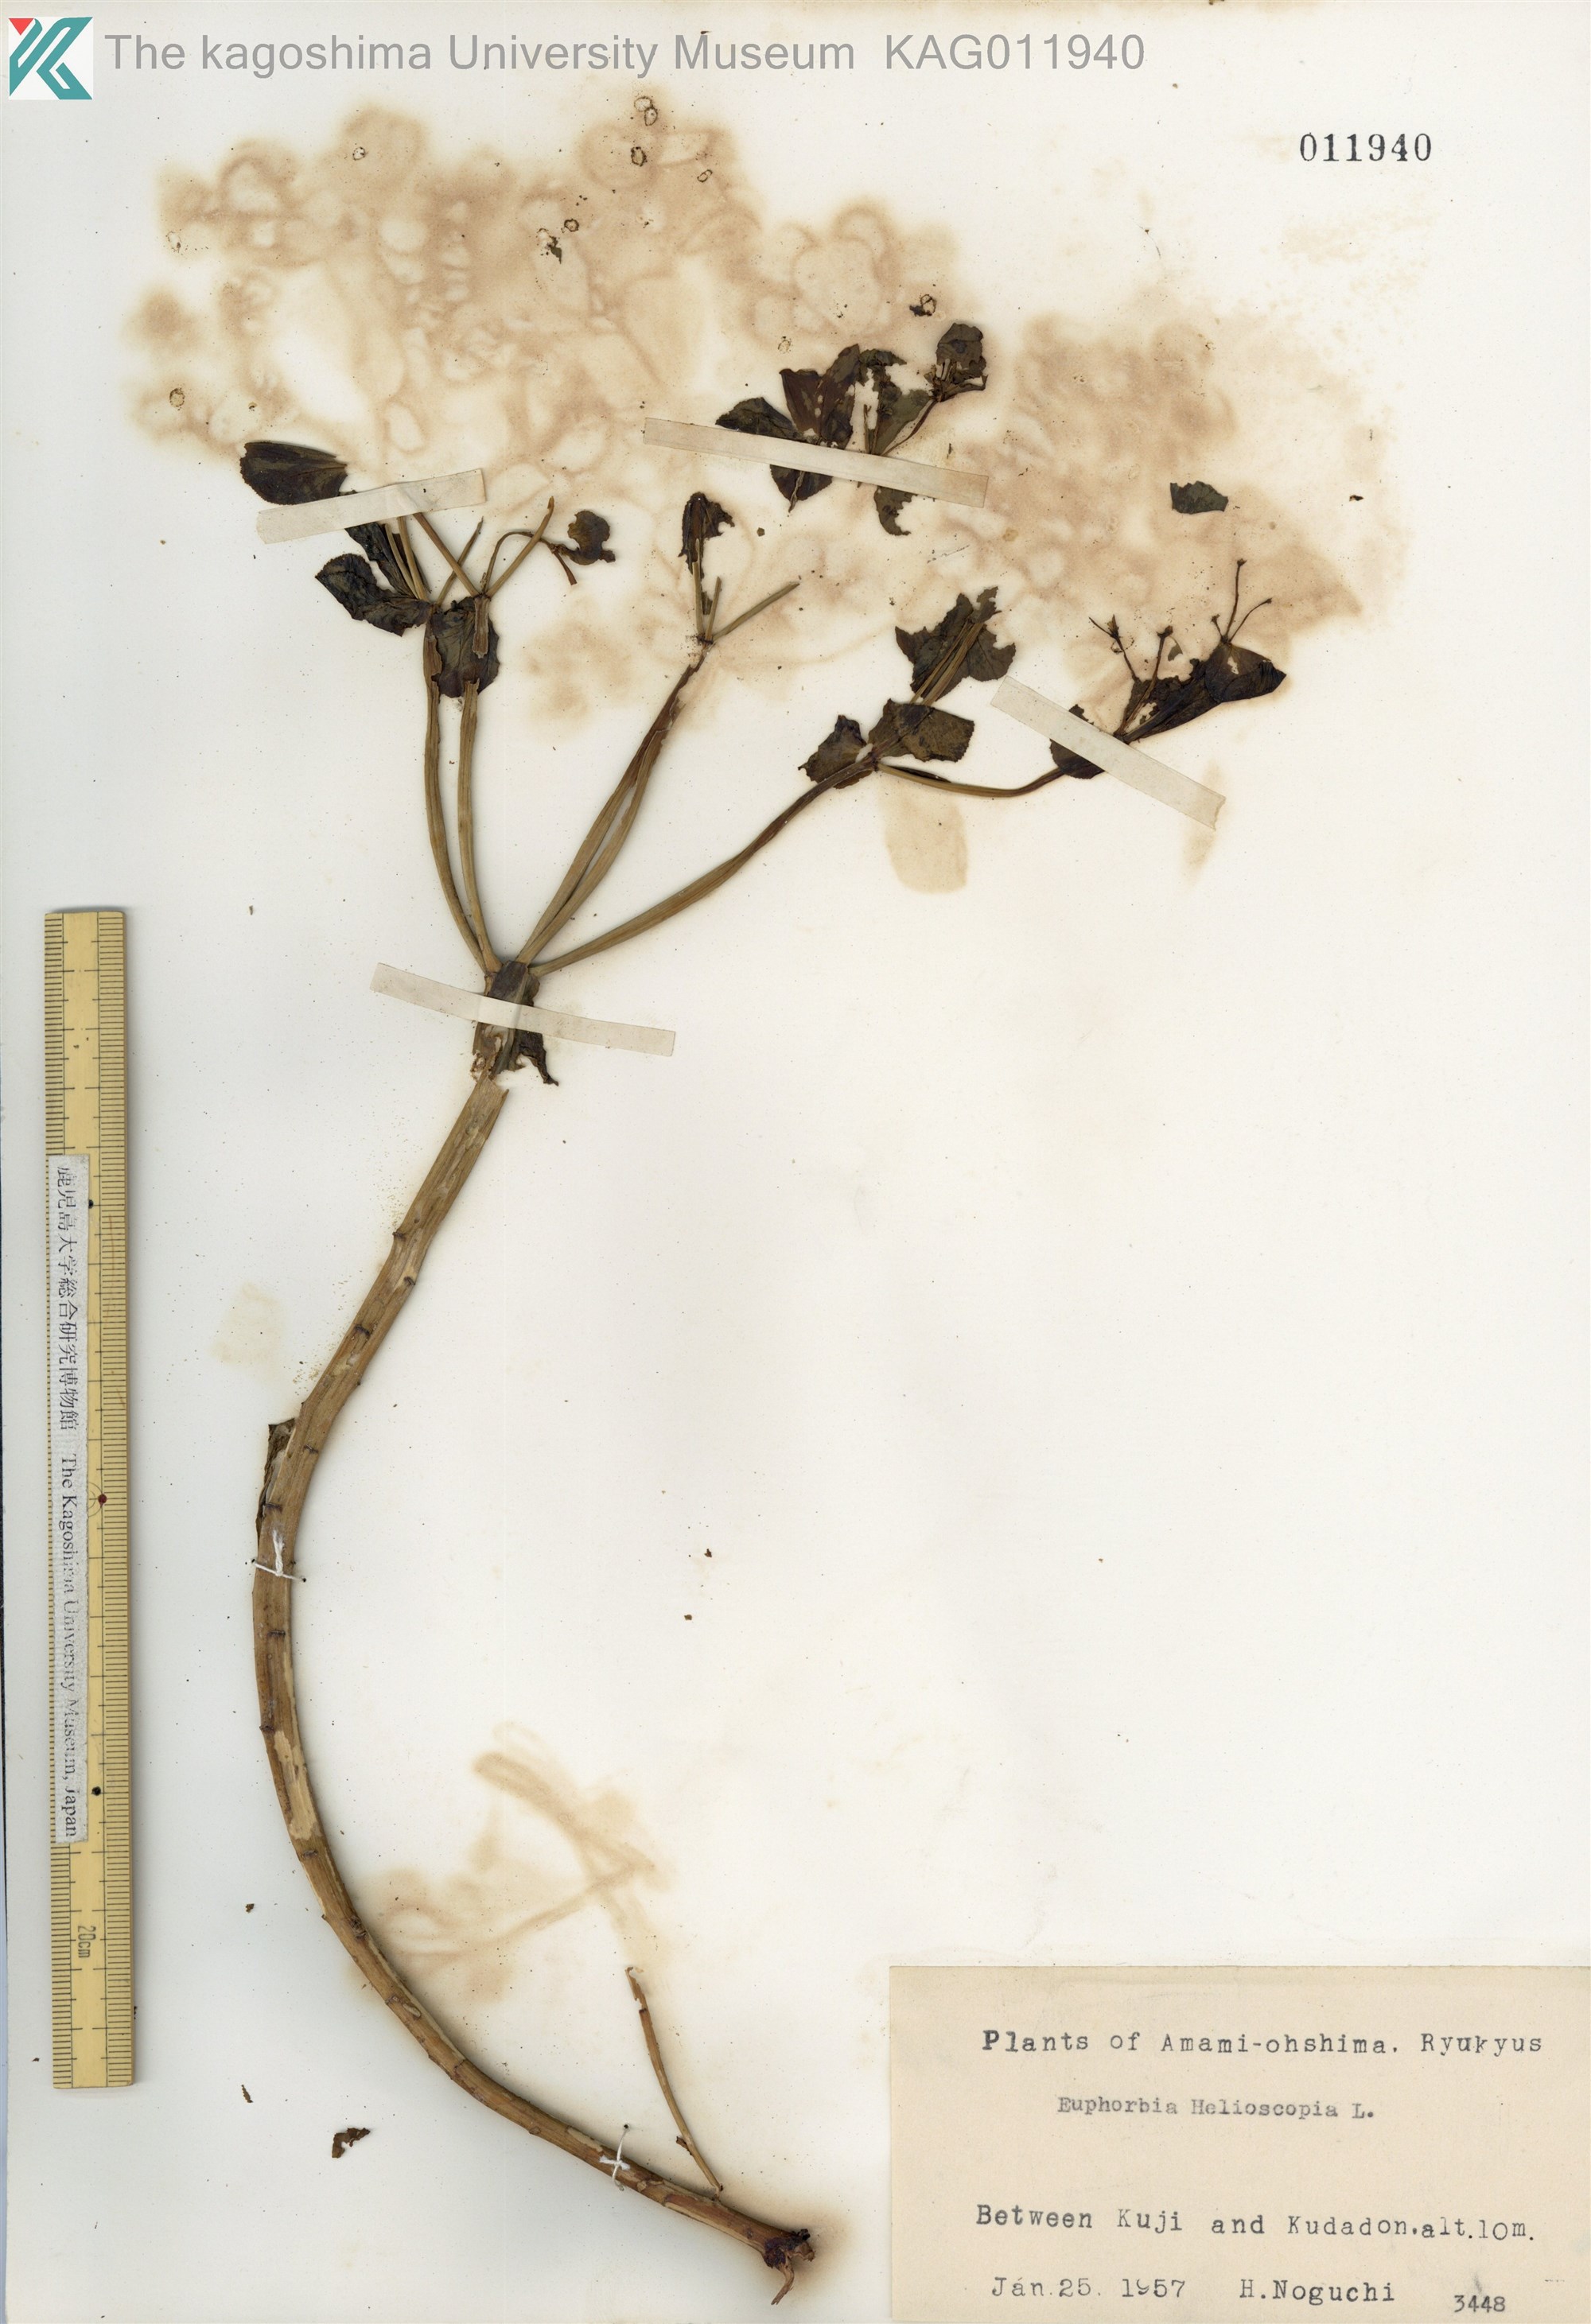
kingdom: Plantae
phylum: Tracheophyta
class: Magnoliopsida
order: Malpighiales
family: Euphorbiaceae
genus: Euphorbia
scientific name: Euphorbia helioscopia
